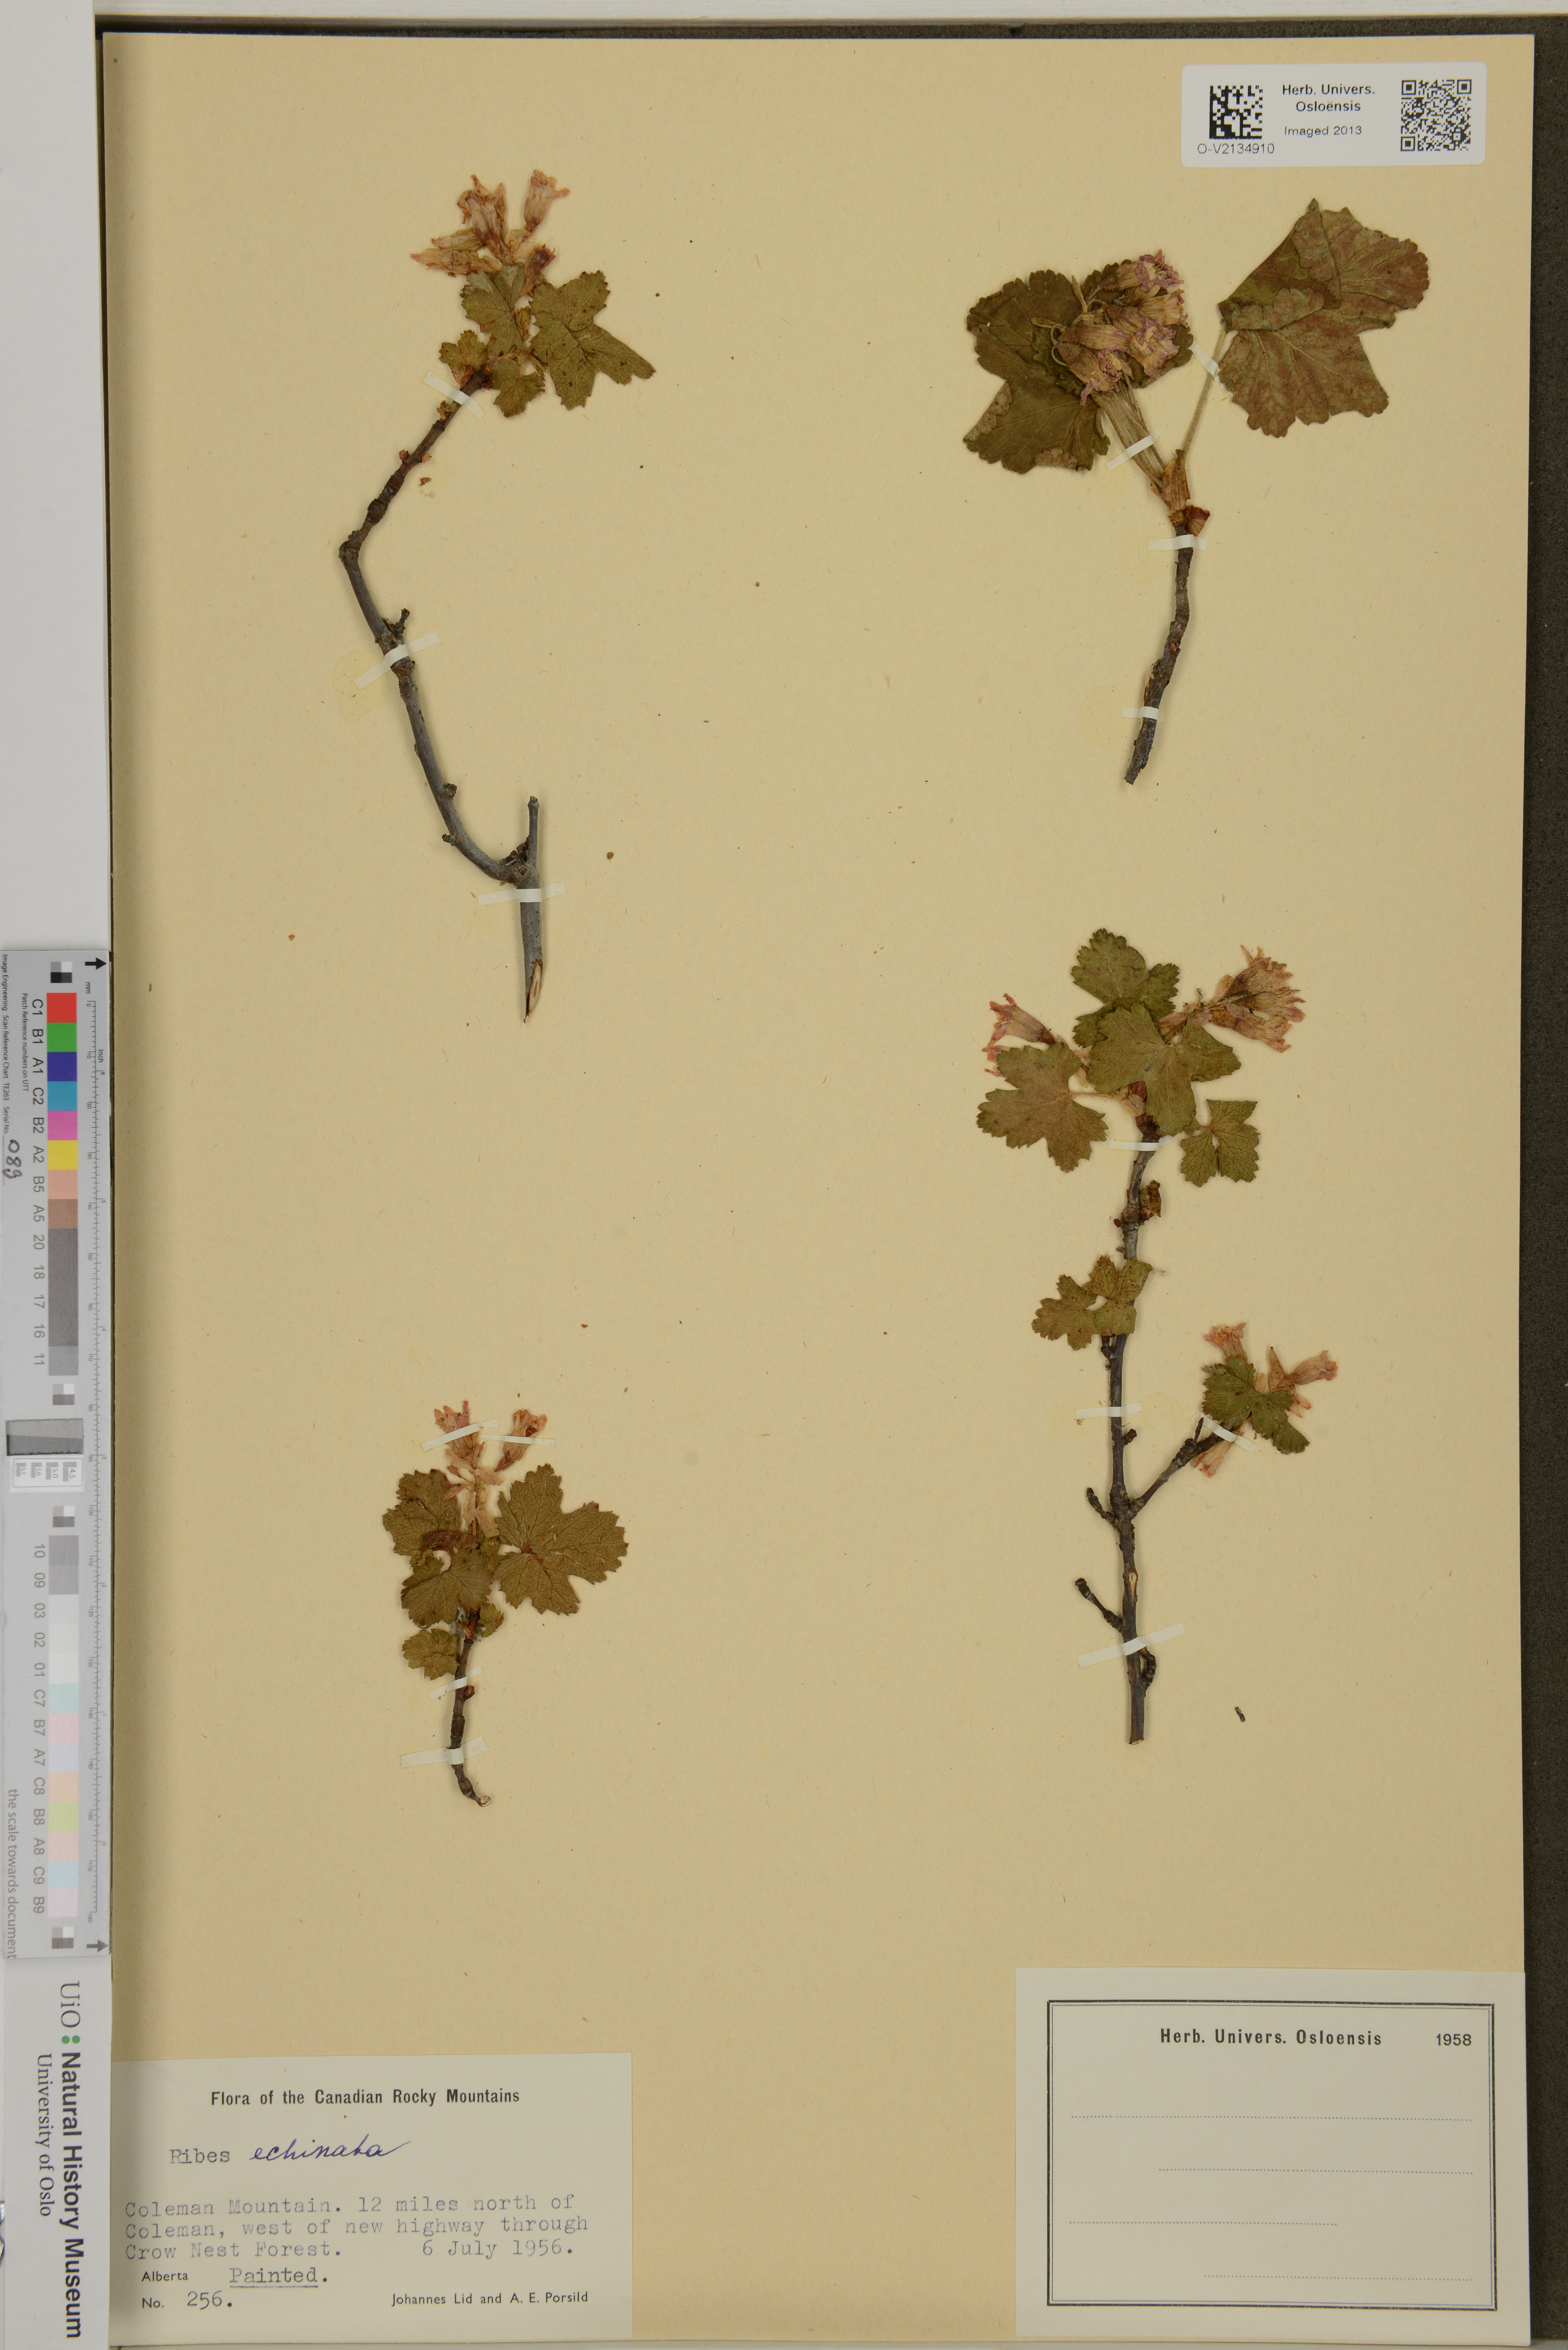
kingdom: Plantae
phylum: Tracheophyta
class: Magnoliopsida
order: Saxifragales
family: Grossulariaceae
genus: Ribes
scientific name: Ribes lacustre
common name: Black gooseberry
